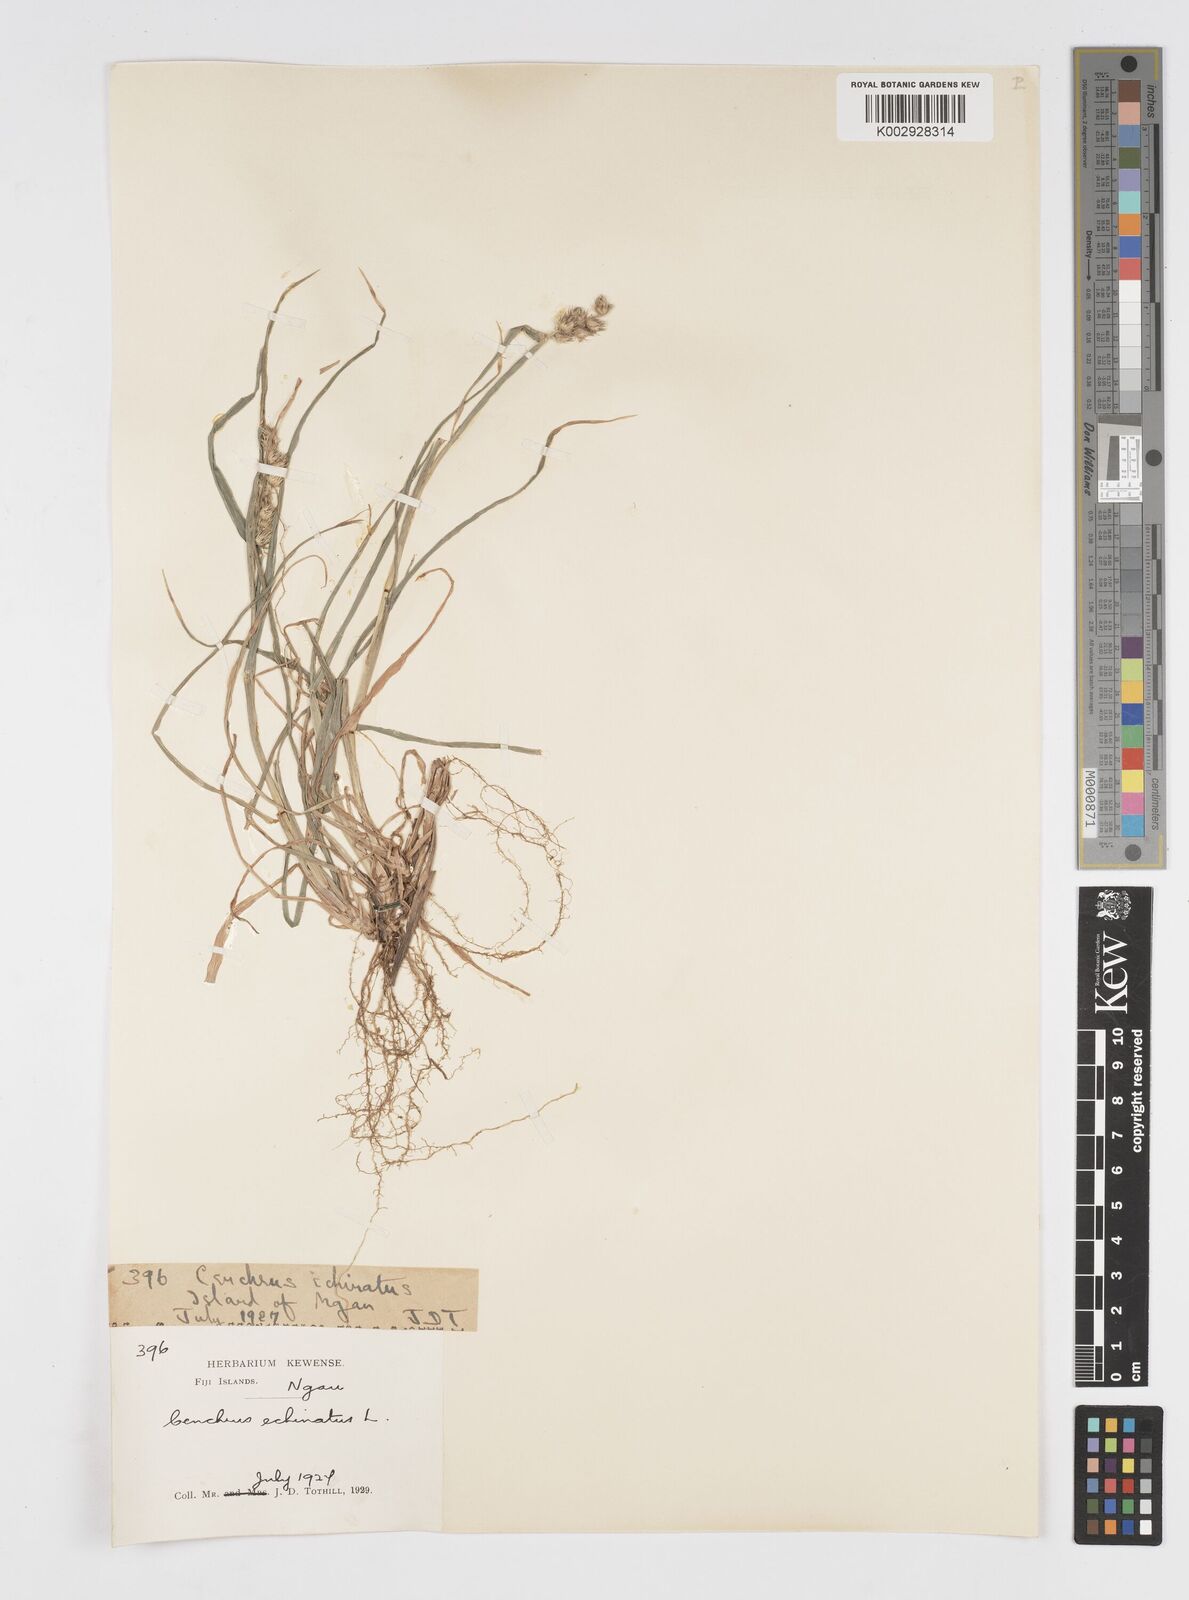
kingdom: Plantae
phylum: Tracheophyta
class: Liliopsida
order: Poales
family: Poaceae
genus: Cenchrus
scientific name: Cenchrus echinatus
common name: Southern sandbur
